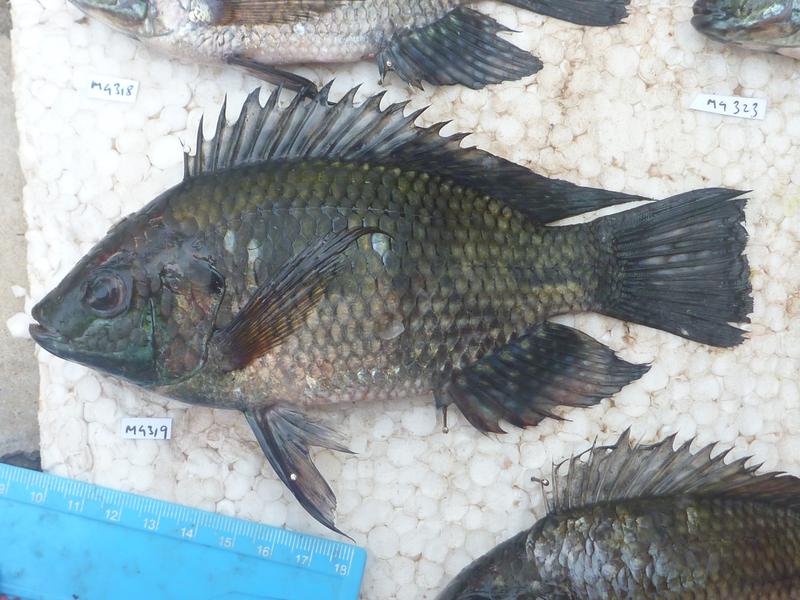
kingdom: Animalia
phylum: Chordata
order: Perciformes
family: Cichlidae
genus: Oreochromis
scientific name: Oreochromis leucostictus
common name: Blue spotted tilapia
